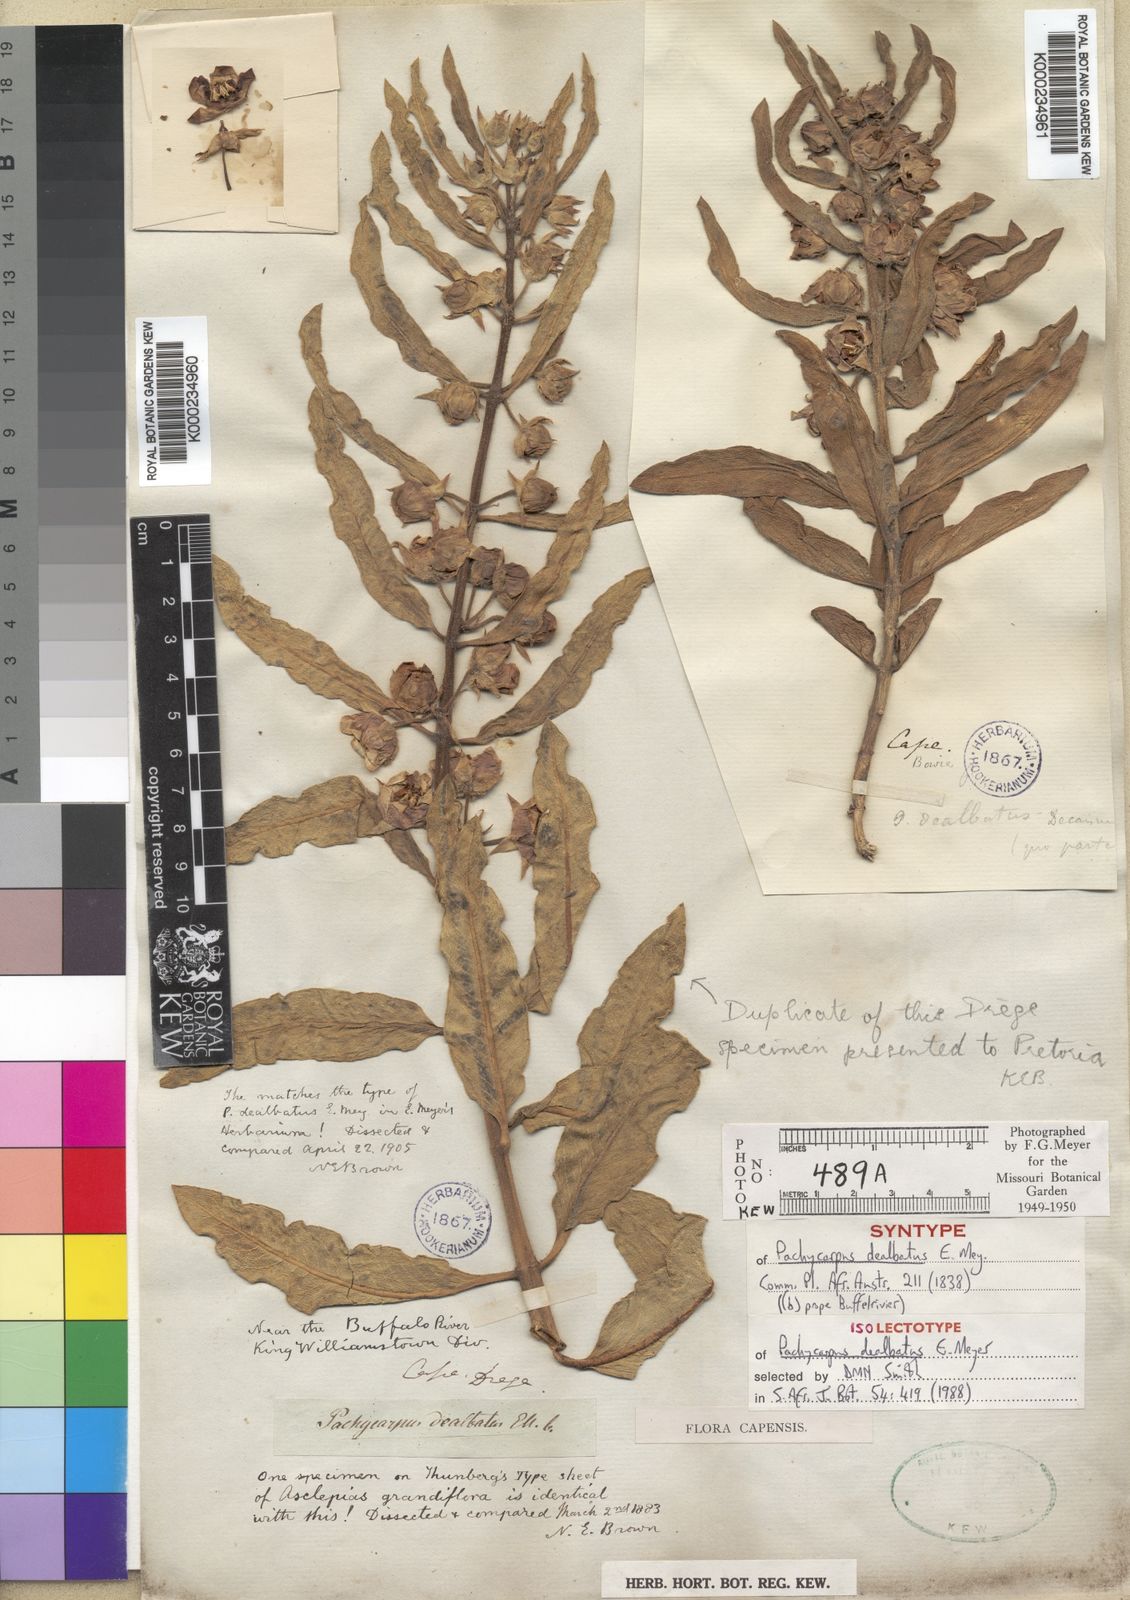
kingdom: Plantae
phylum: Tracheophyta
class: Magnoliopsida
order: Gentianales
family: Apocynaceae
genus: Pachycarpus
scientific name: Pachycarpus dealbatus
